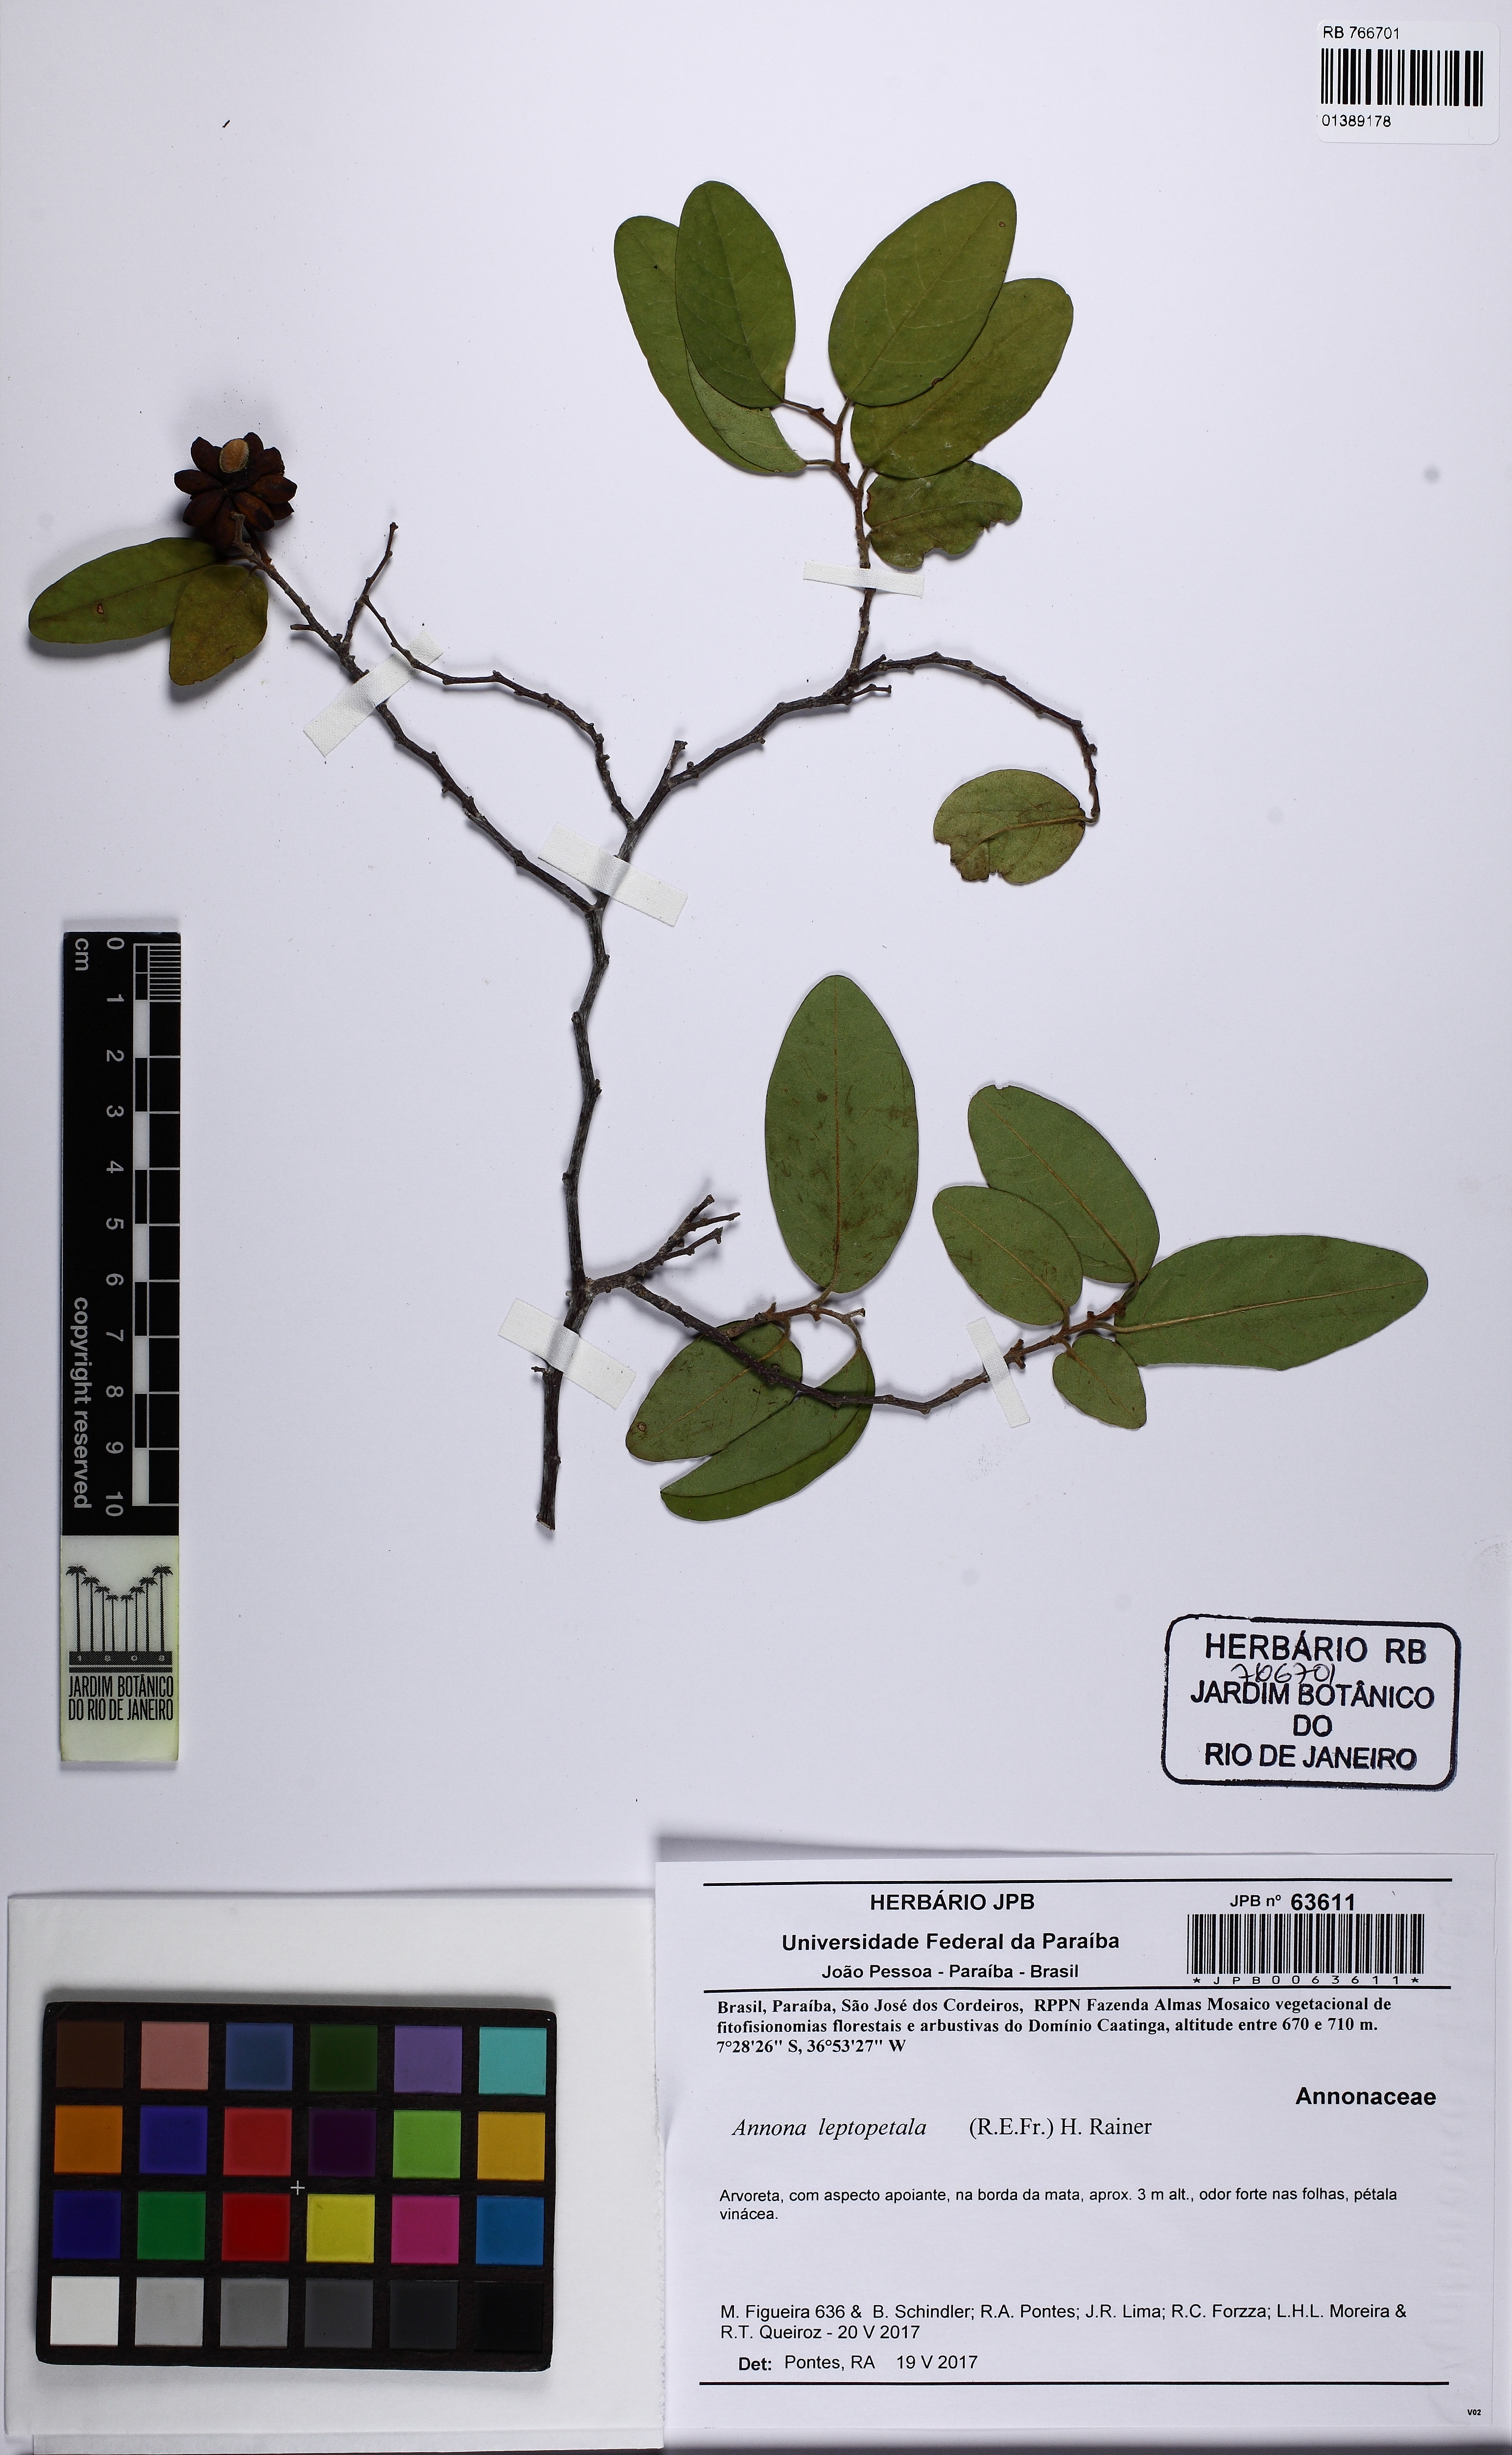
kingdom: Plantae
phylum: Tracheophyta
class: Magnoliopsida
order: Magnoliales
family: Annonaceae
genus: Annona
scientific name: Annona leptopetala
